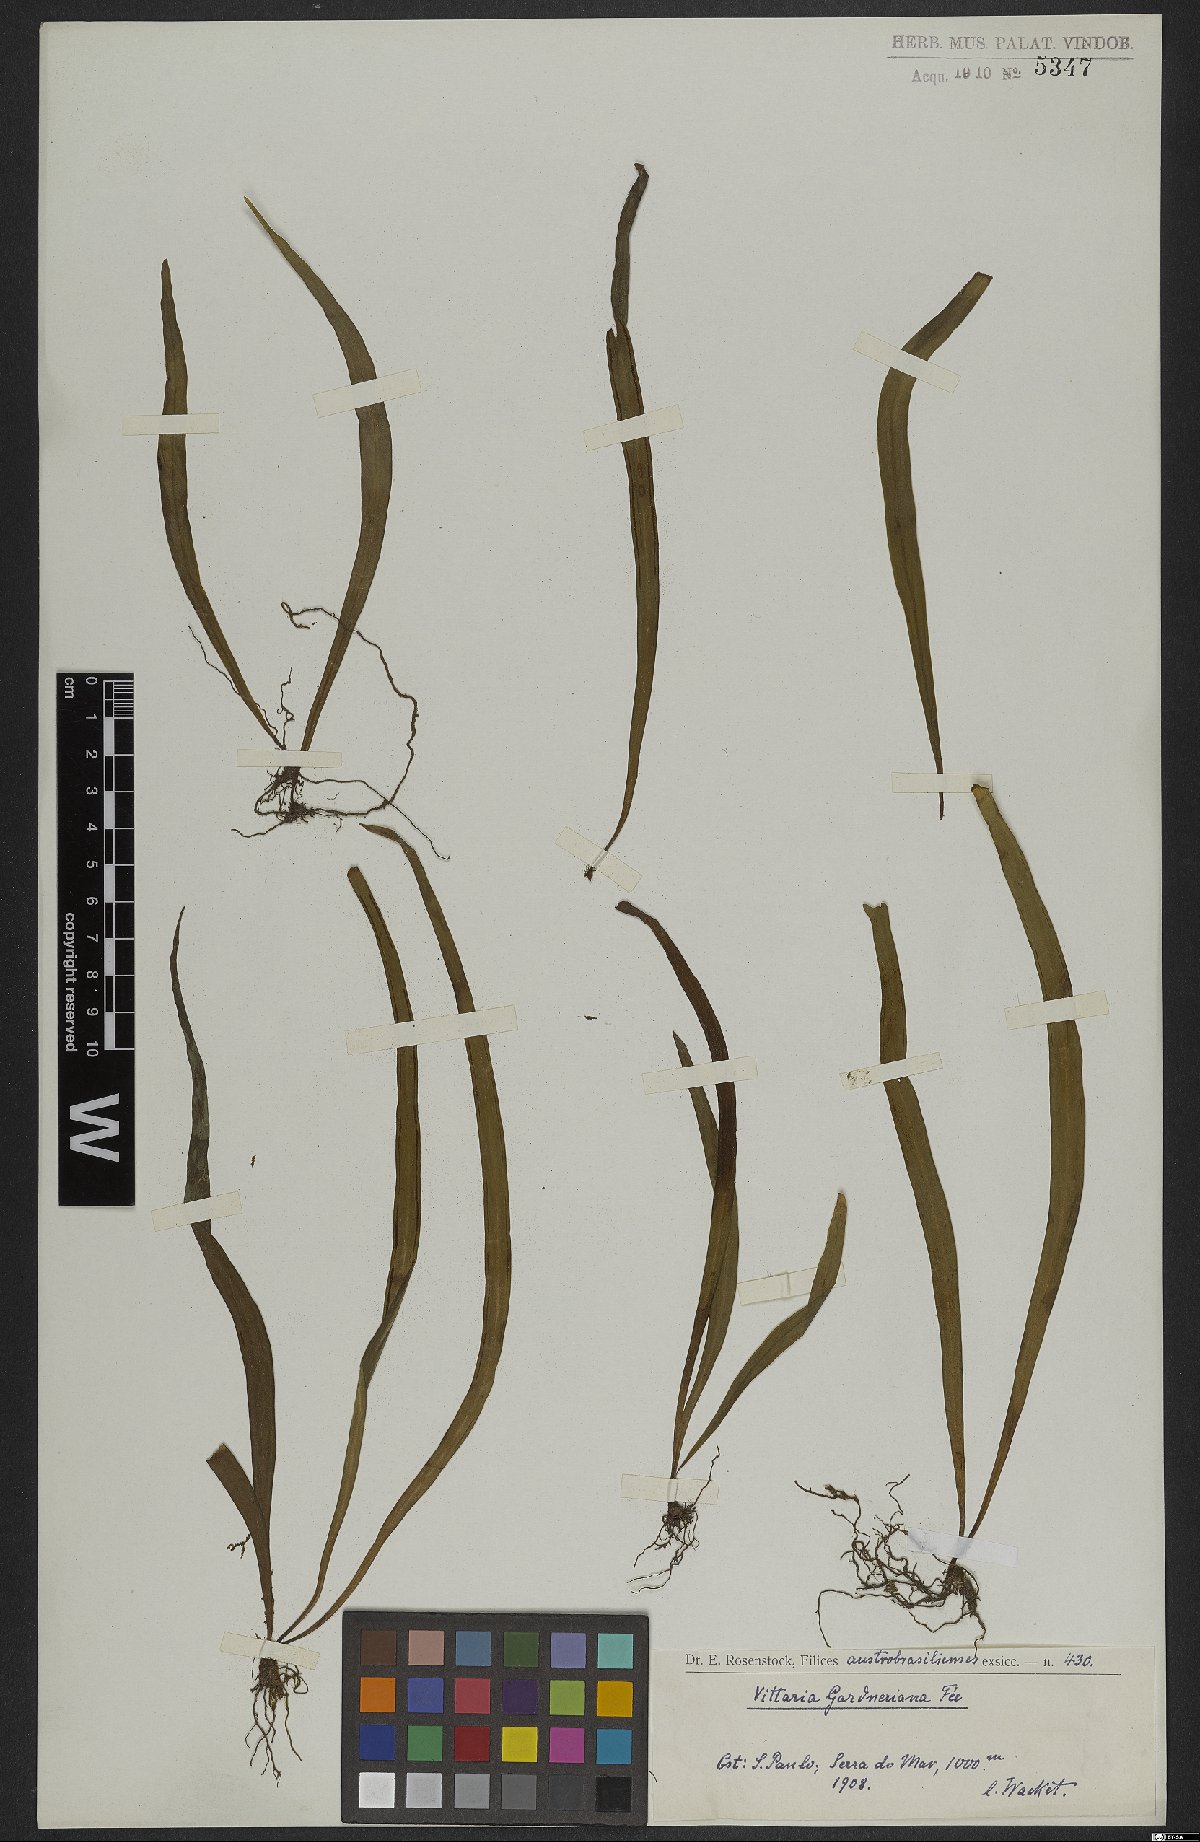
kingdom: Plantae
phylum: Tracheophyta
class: Polypodiopsida
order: Polypodiales
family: Pteridaceae
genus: Ananthacorus
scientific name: Ananthacorus angustifolius
